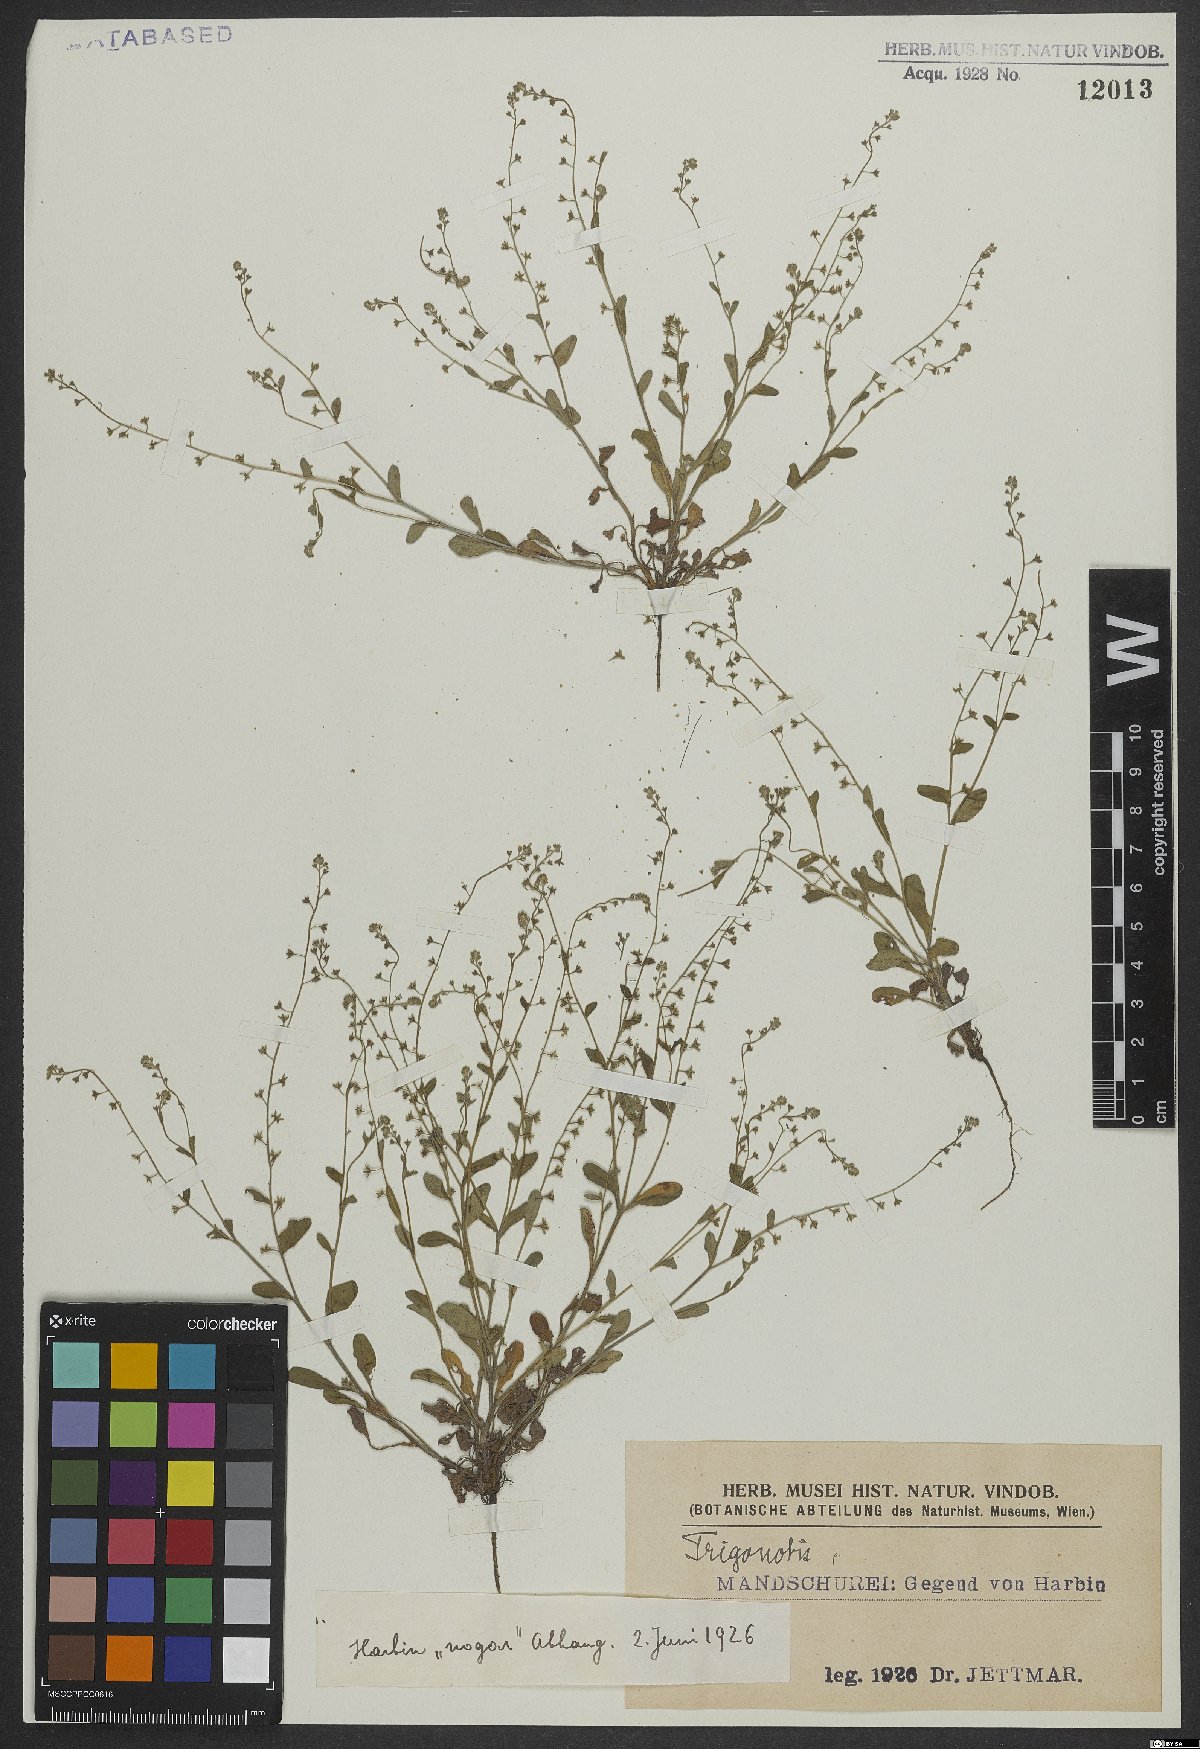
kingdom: Plantae
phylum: Tracheophyta
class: Magnoliopsida
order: Boraginales
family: Boraginaceae
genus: Trigonotis
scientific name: Trigonotis
